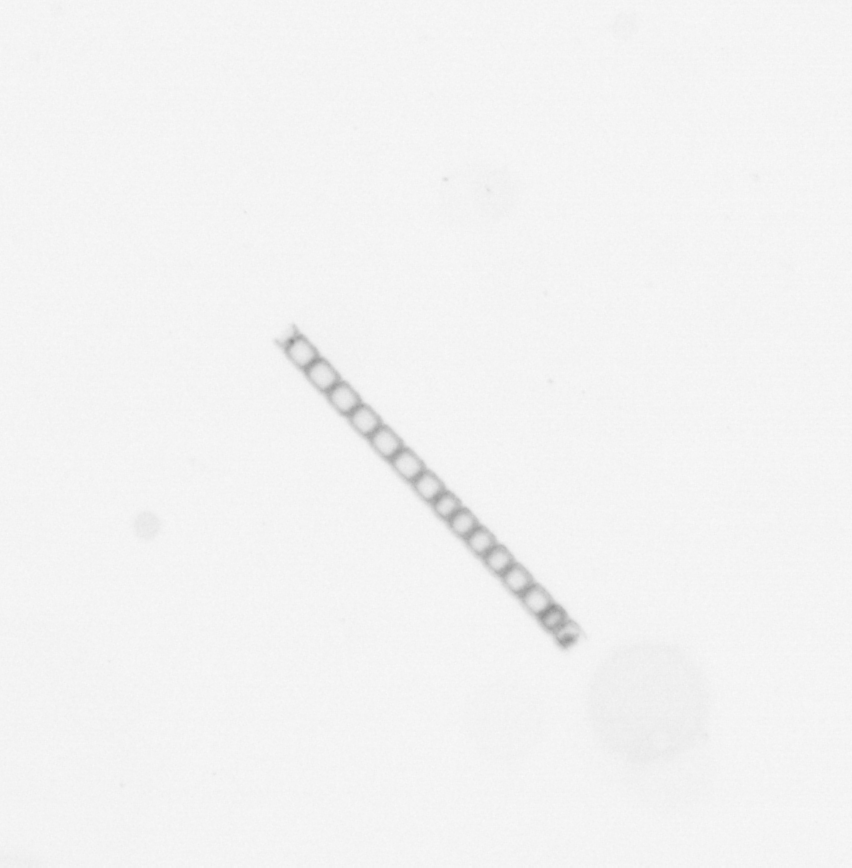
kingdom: Chromista
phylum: Ochrophyta
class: Bacillariophyceae
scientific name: Bacillariophyceae
